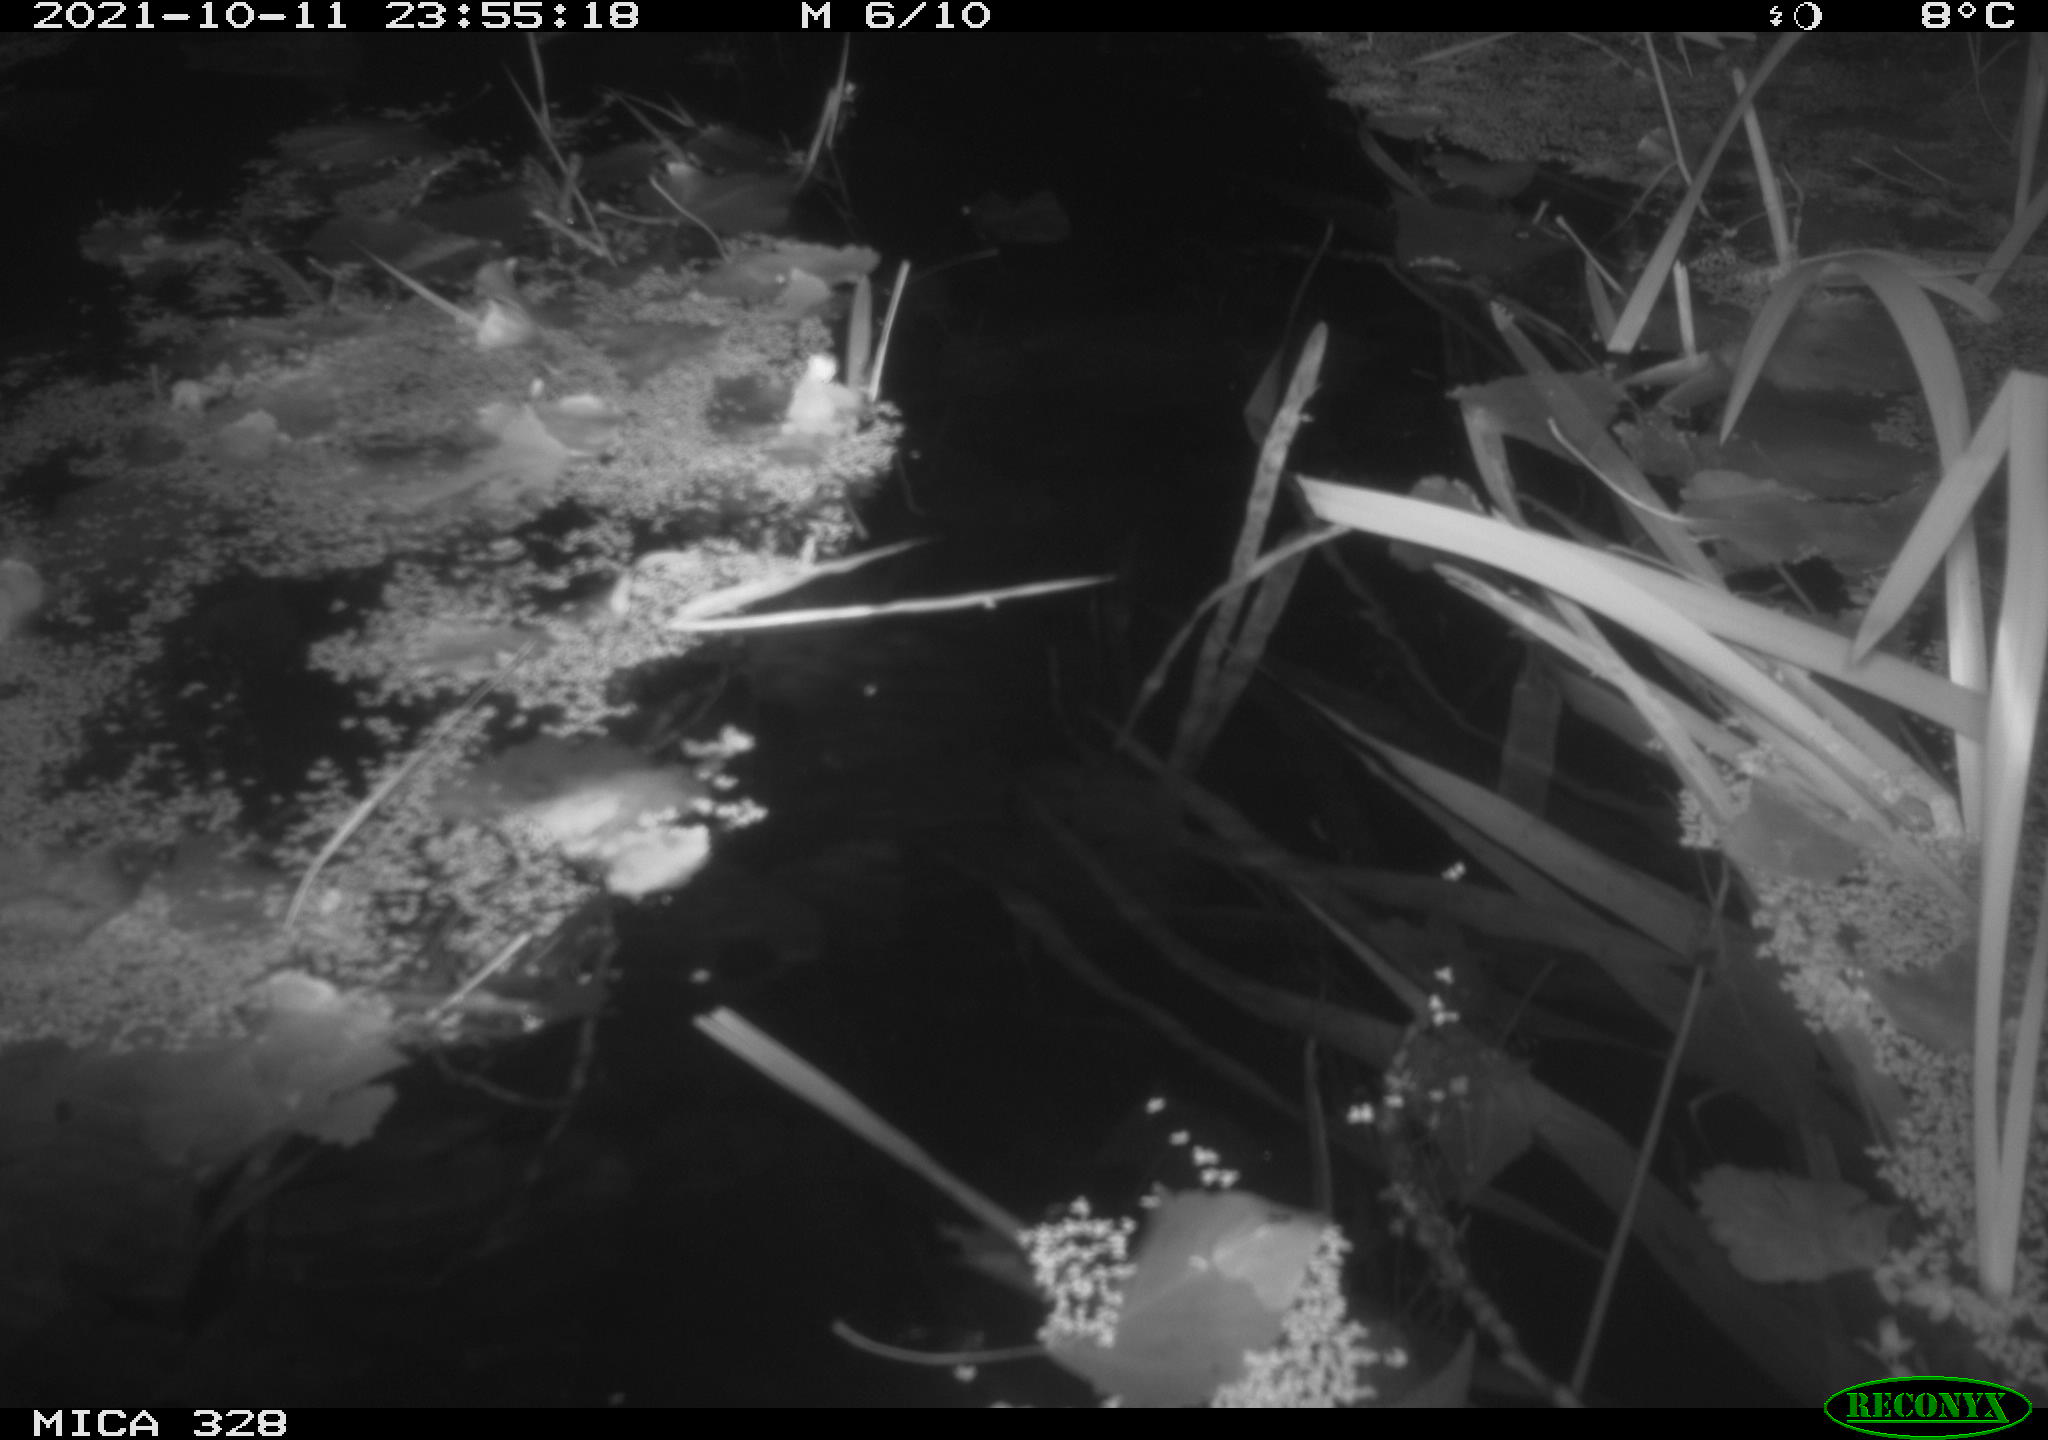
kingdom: Animalia
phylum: Chordata
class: Mammalia
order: Rodentia
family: Cricetidae
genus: Ondatra
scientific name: Ondatra zibethicus
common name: Muskrat
